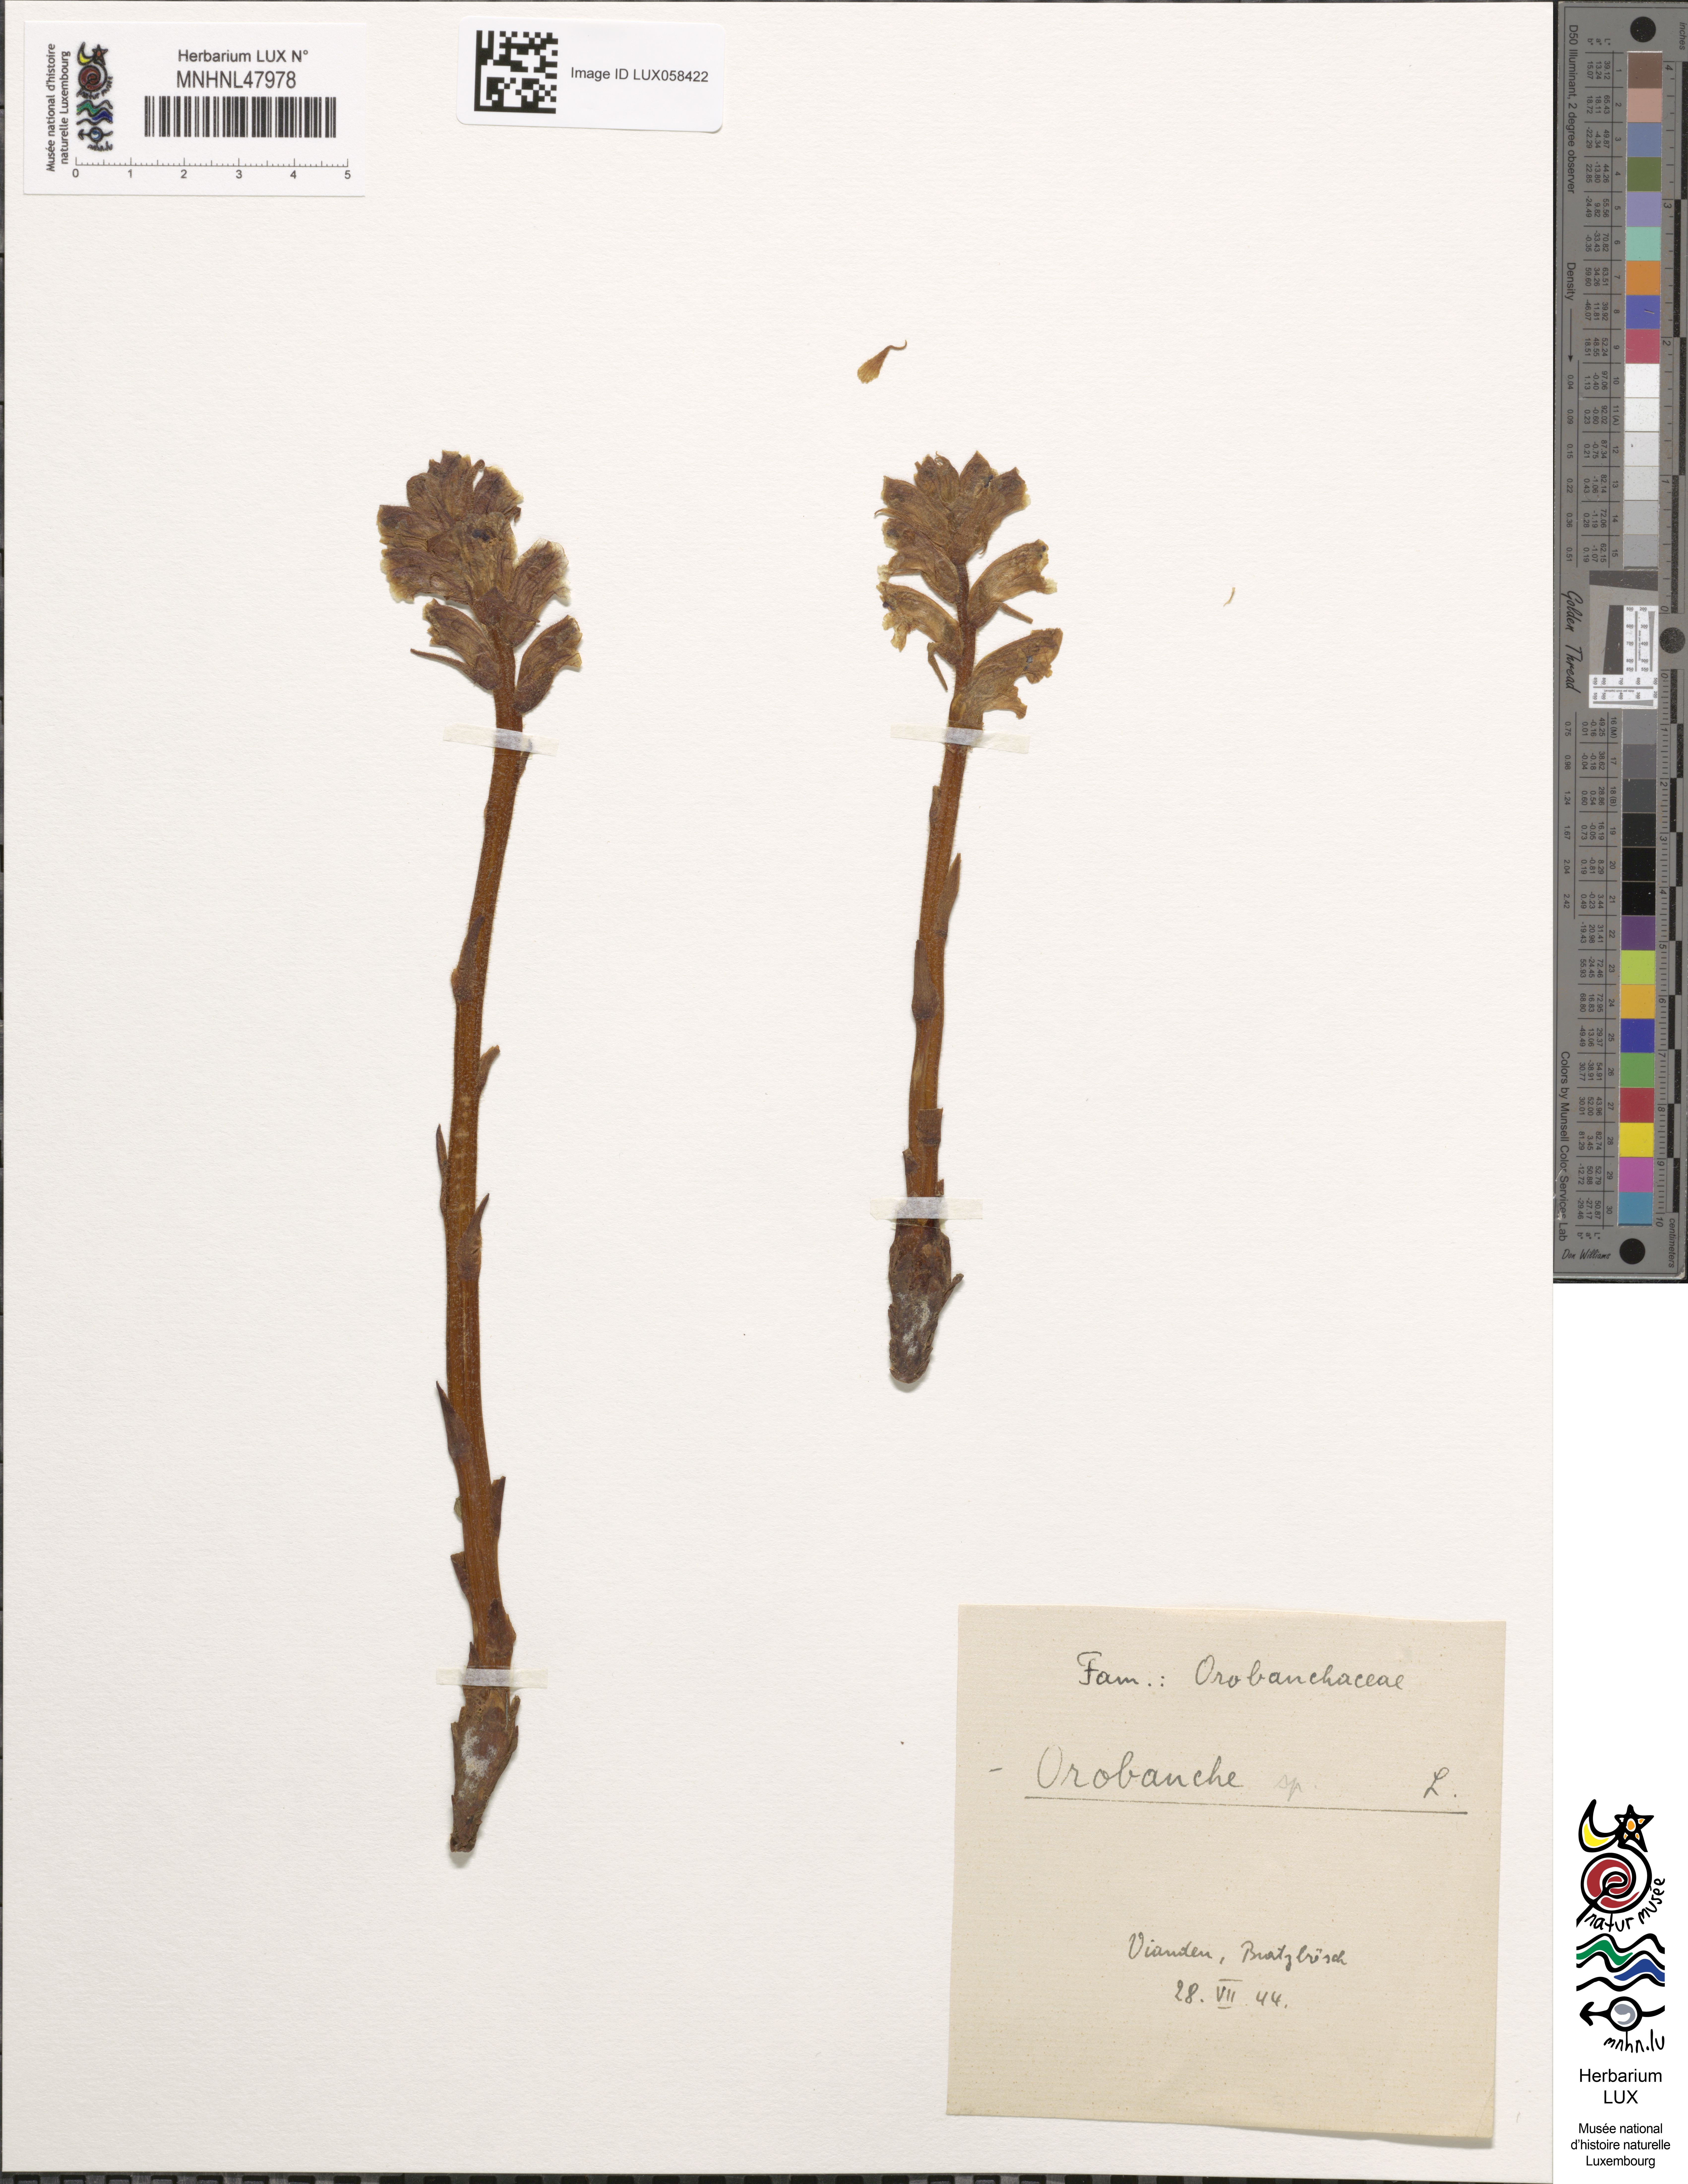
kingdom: Plantae
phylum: Tracheophyta
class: Magnoliopsida
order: Lamiales
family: Orobanchaceae
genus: Orobanche
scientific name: Orobanche
